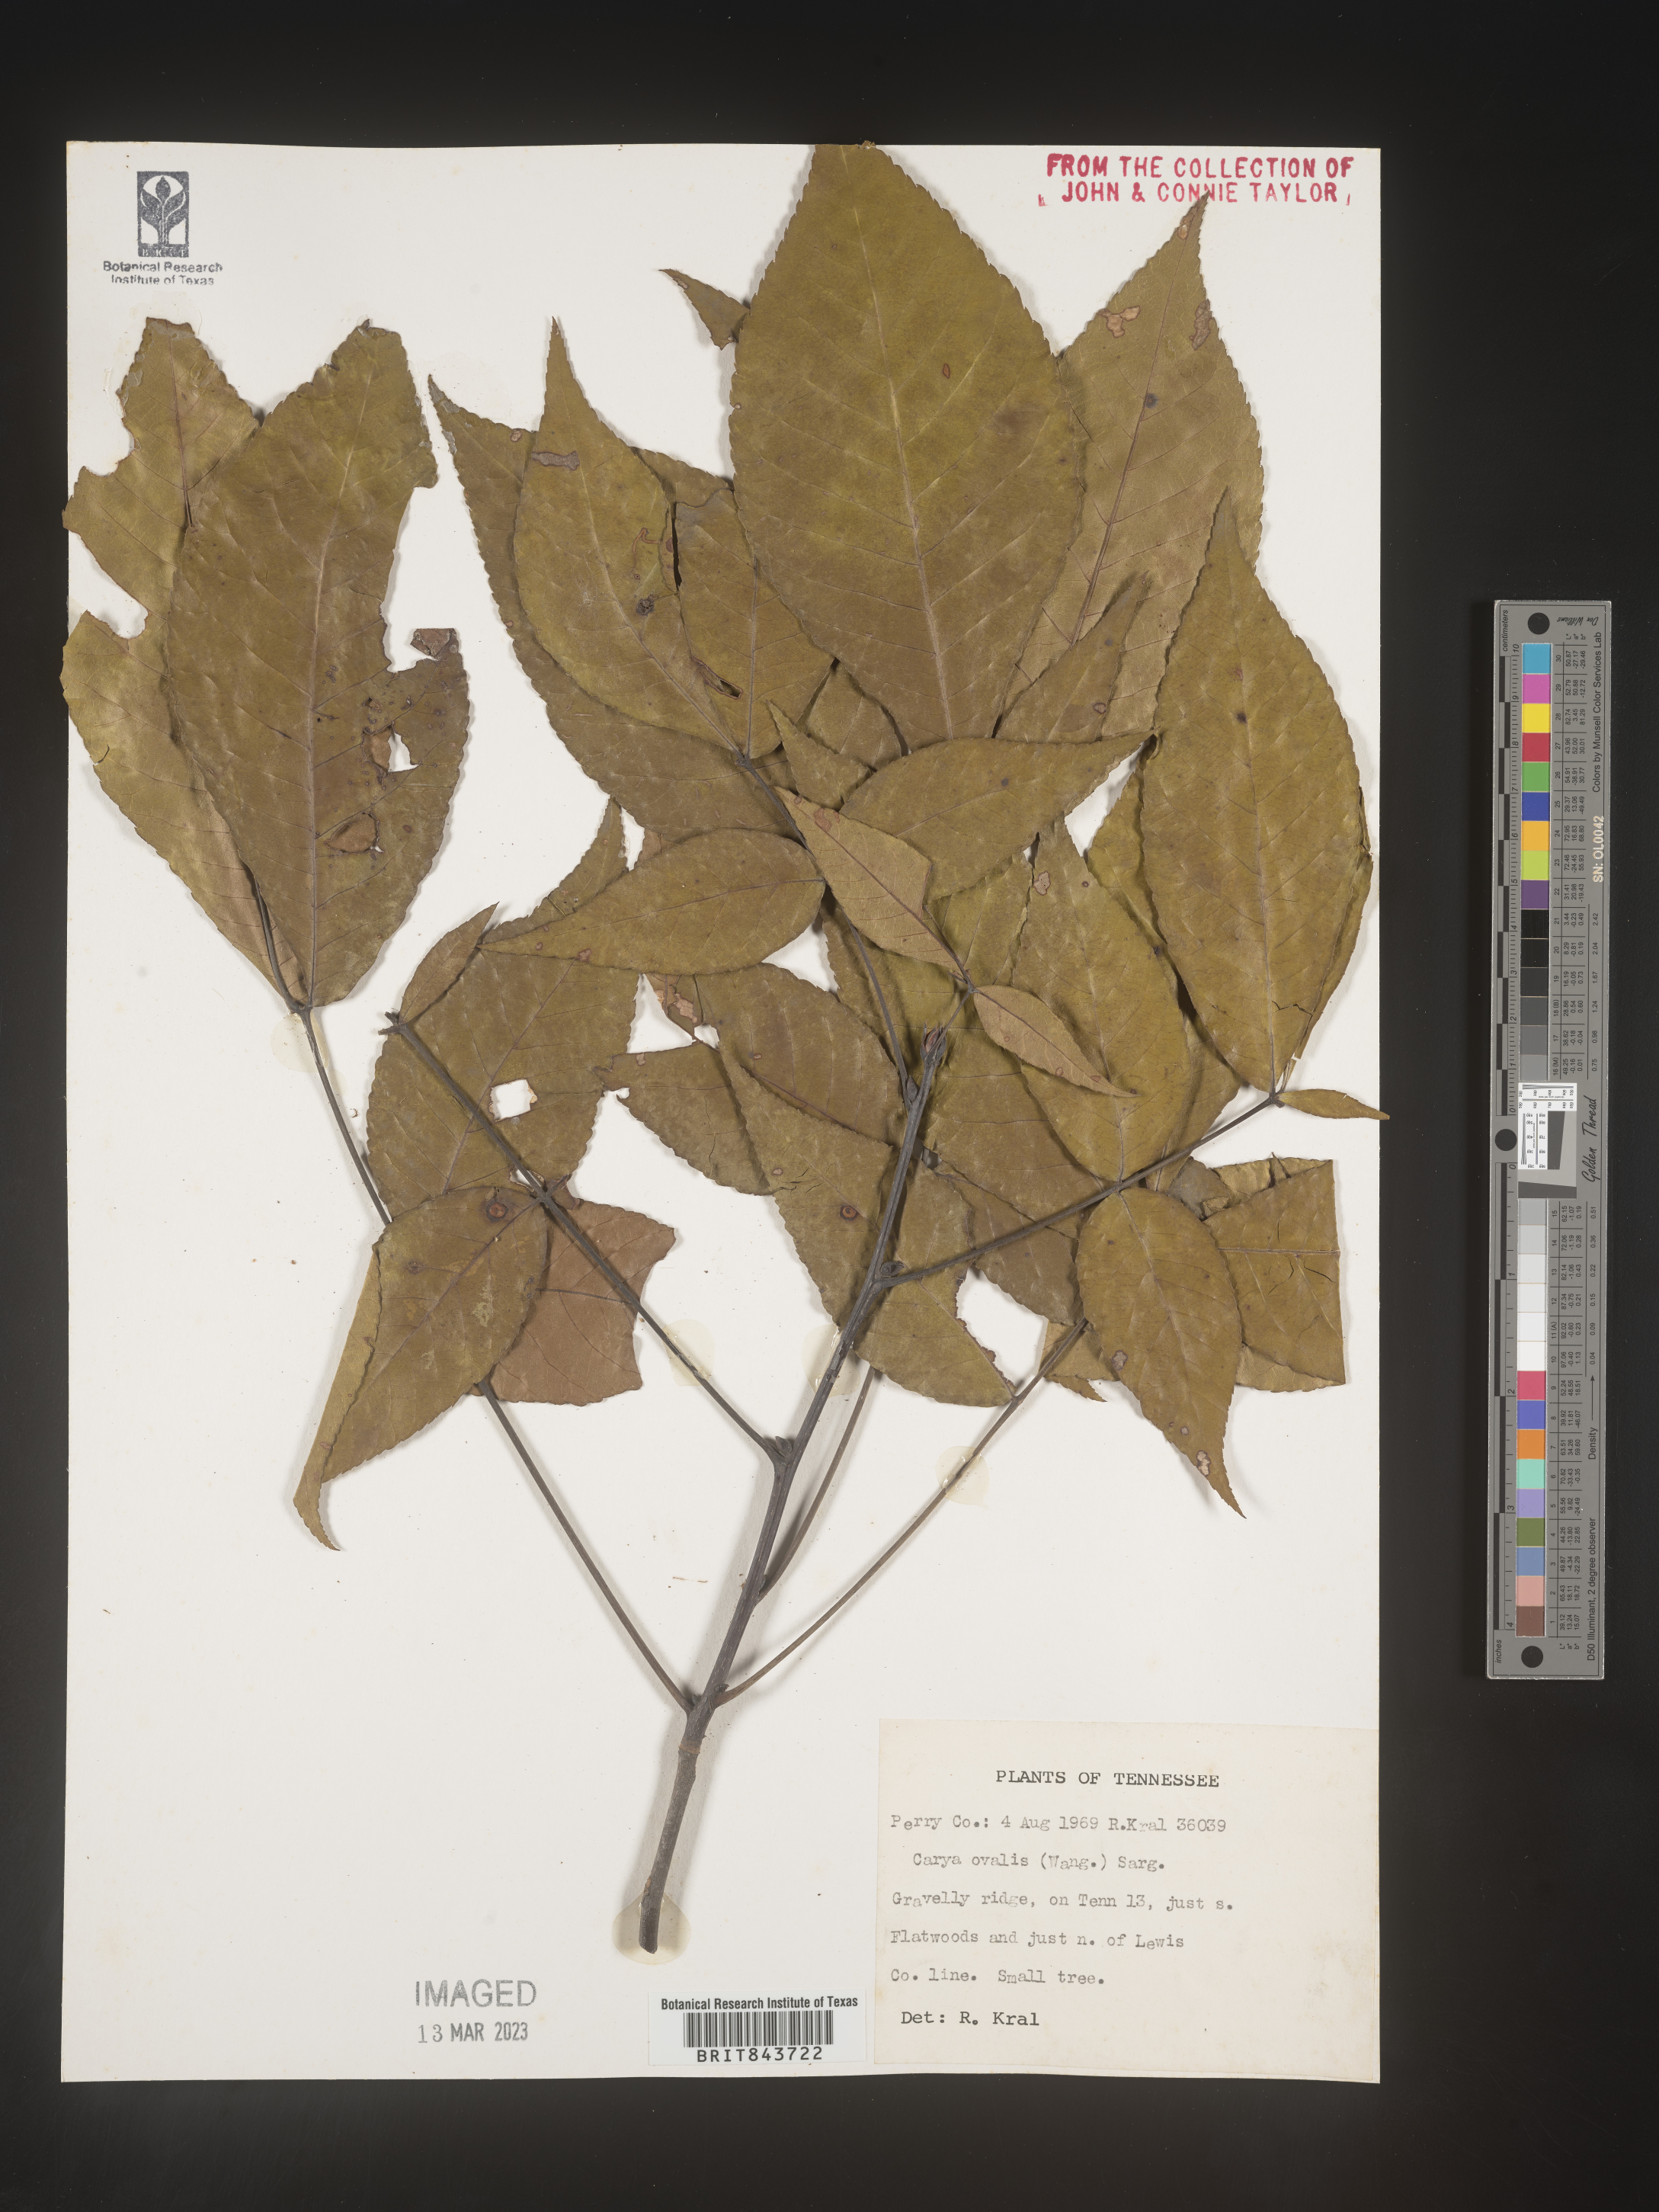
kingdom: Plantae
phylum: Tracheophyta
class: Magnoliopsida
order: Fagales
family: Juglandaceae
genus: Carya
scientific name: Carya ovalis
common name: False shagbark
